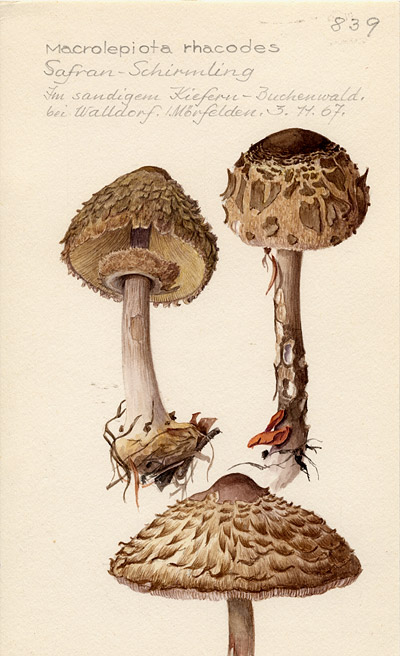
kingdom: Fungi
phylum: Basidiomycota
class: Agaricomycetes
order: Agaricales
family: Agaricaceae
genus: Chlorophyllum
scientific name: Chlorophyllum rhacodes
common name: Shaggy parasol
